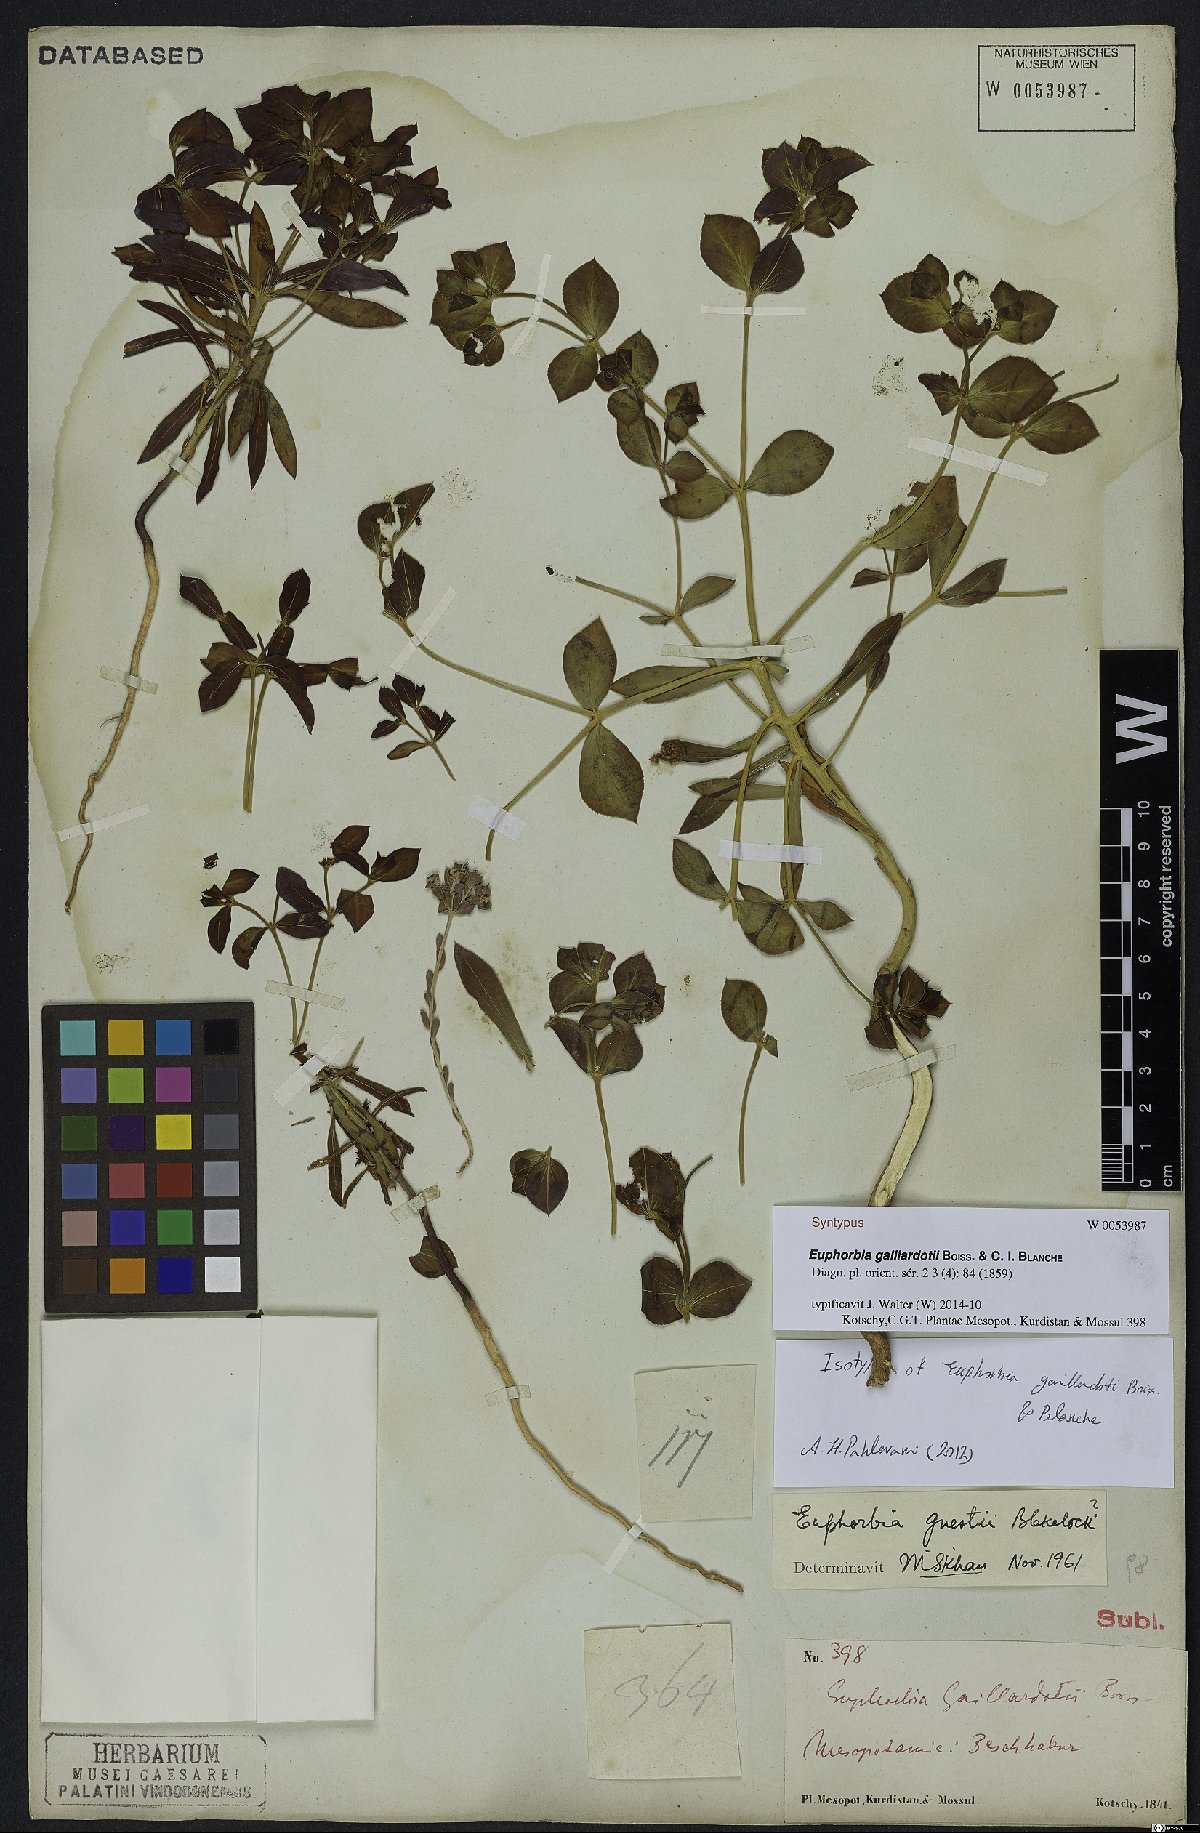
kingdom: Plantae
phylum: Tracheophyta
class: Magnoliopsida
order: Malpighiales
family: Euphorbiaceae
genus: Euphorbia
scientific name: Euphorbia gaillardotii
